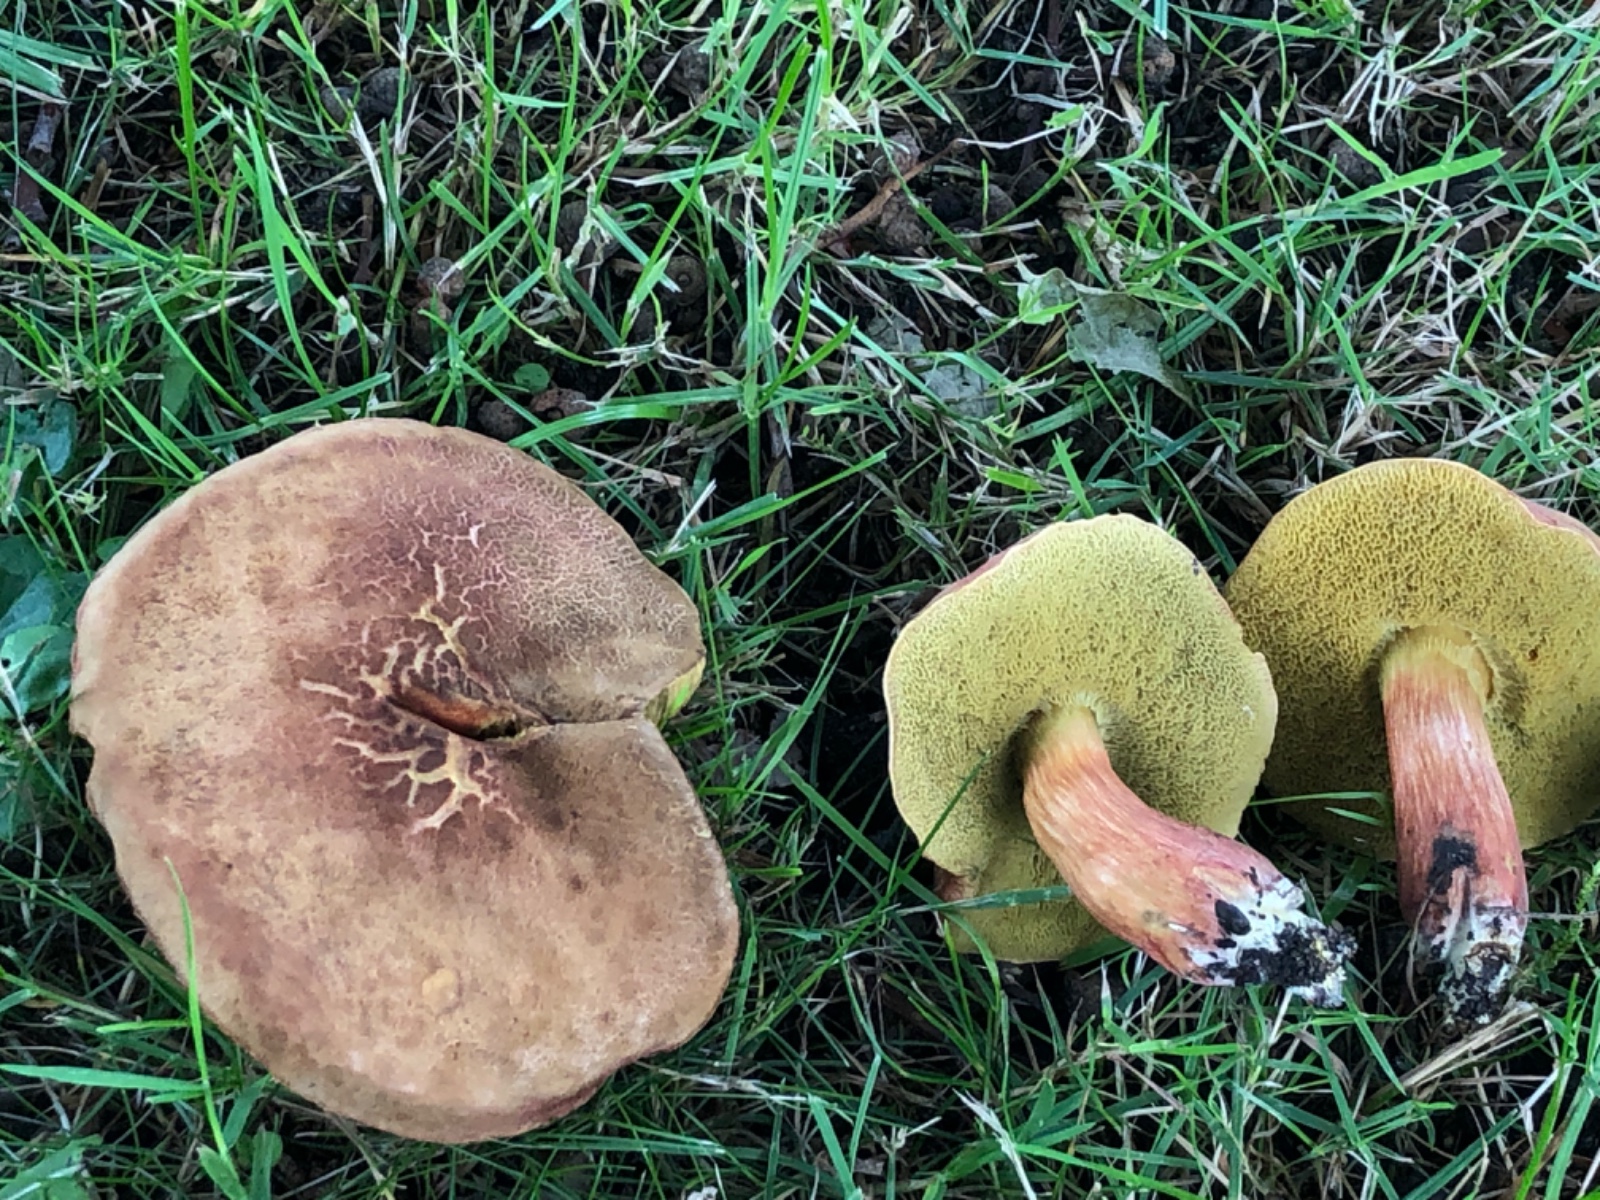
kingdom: Fungi
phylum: Basidiomycota
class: Agaricomycetes
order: Boletales
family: Boletaceae
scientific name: Boletaceae
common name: rørhatfamilien
